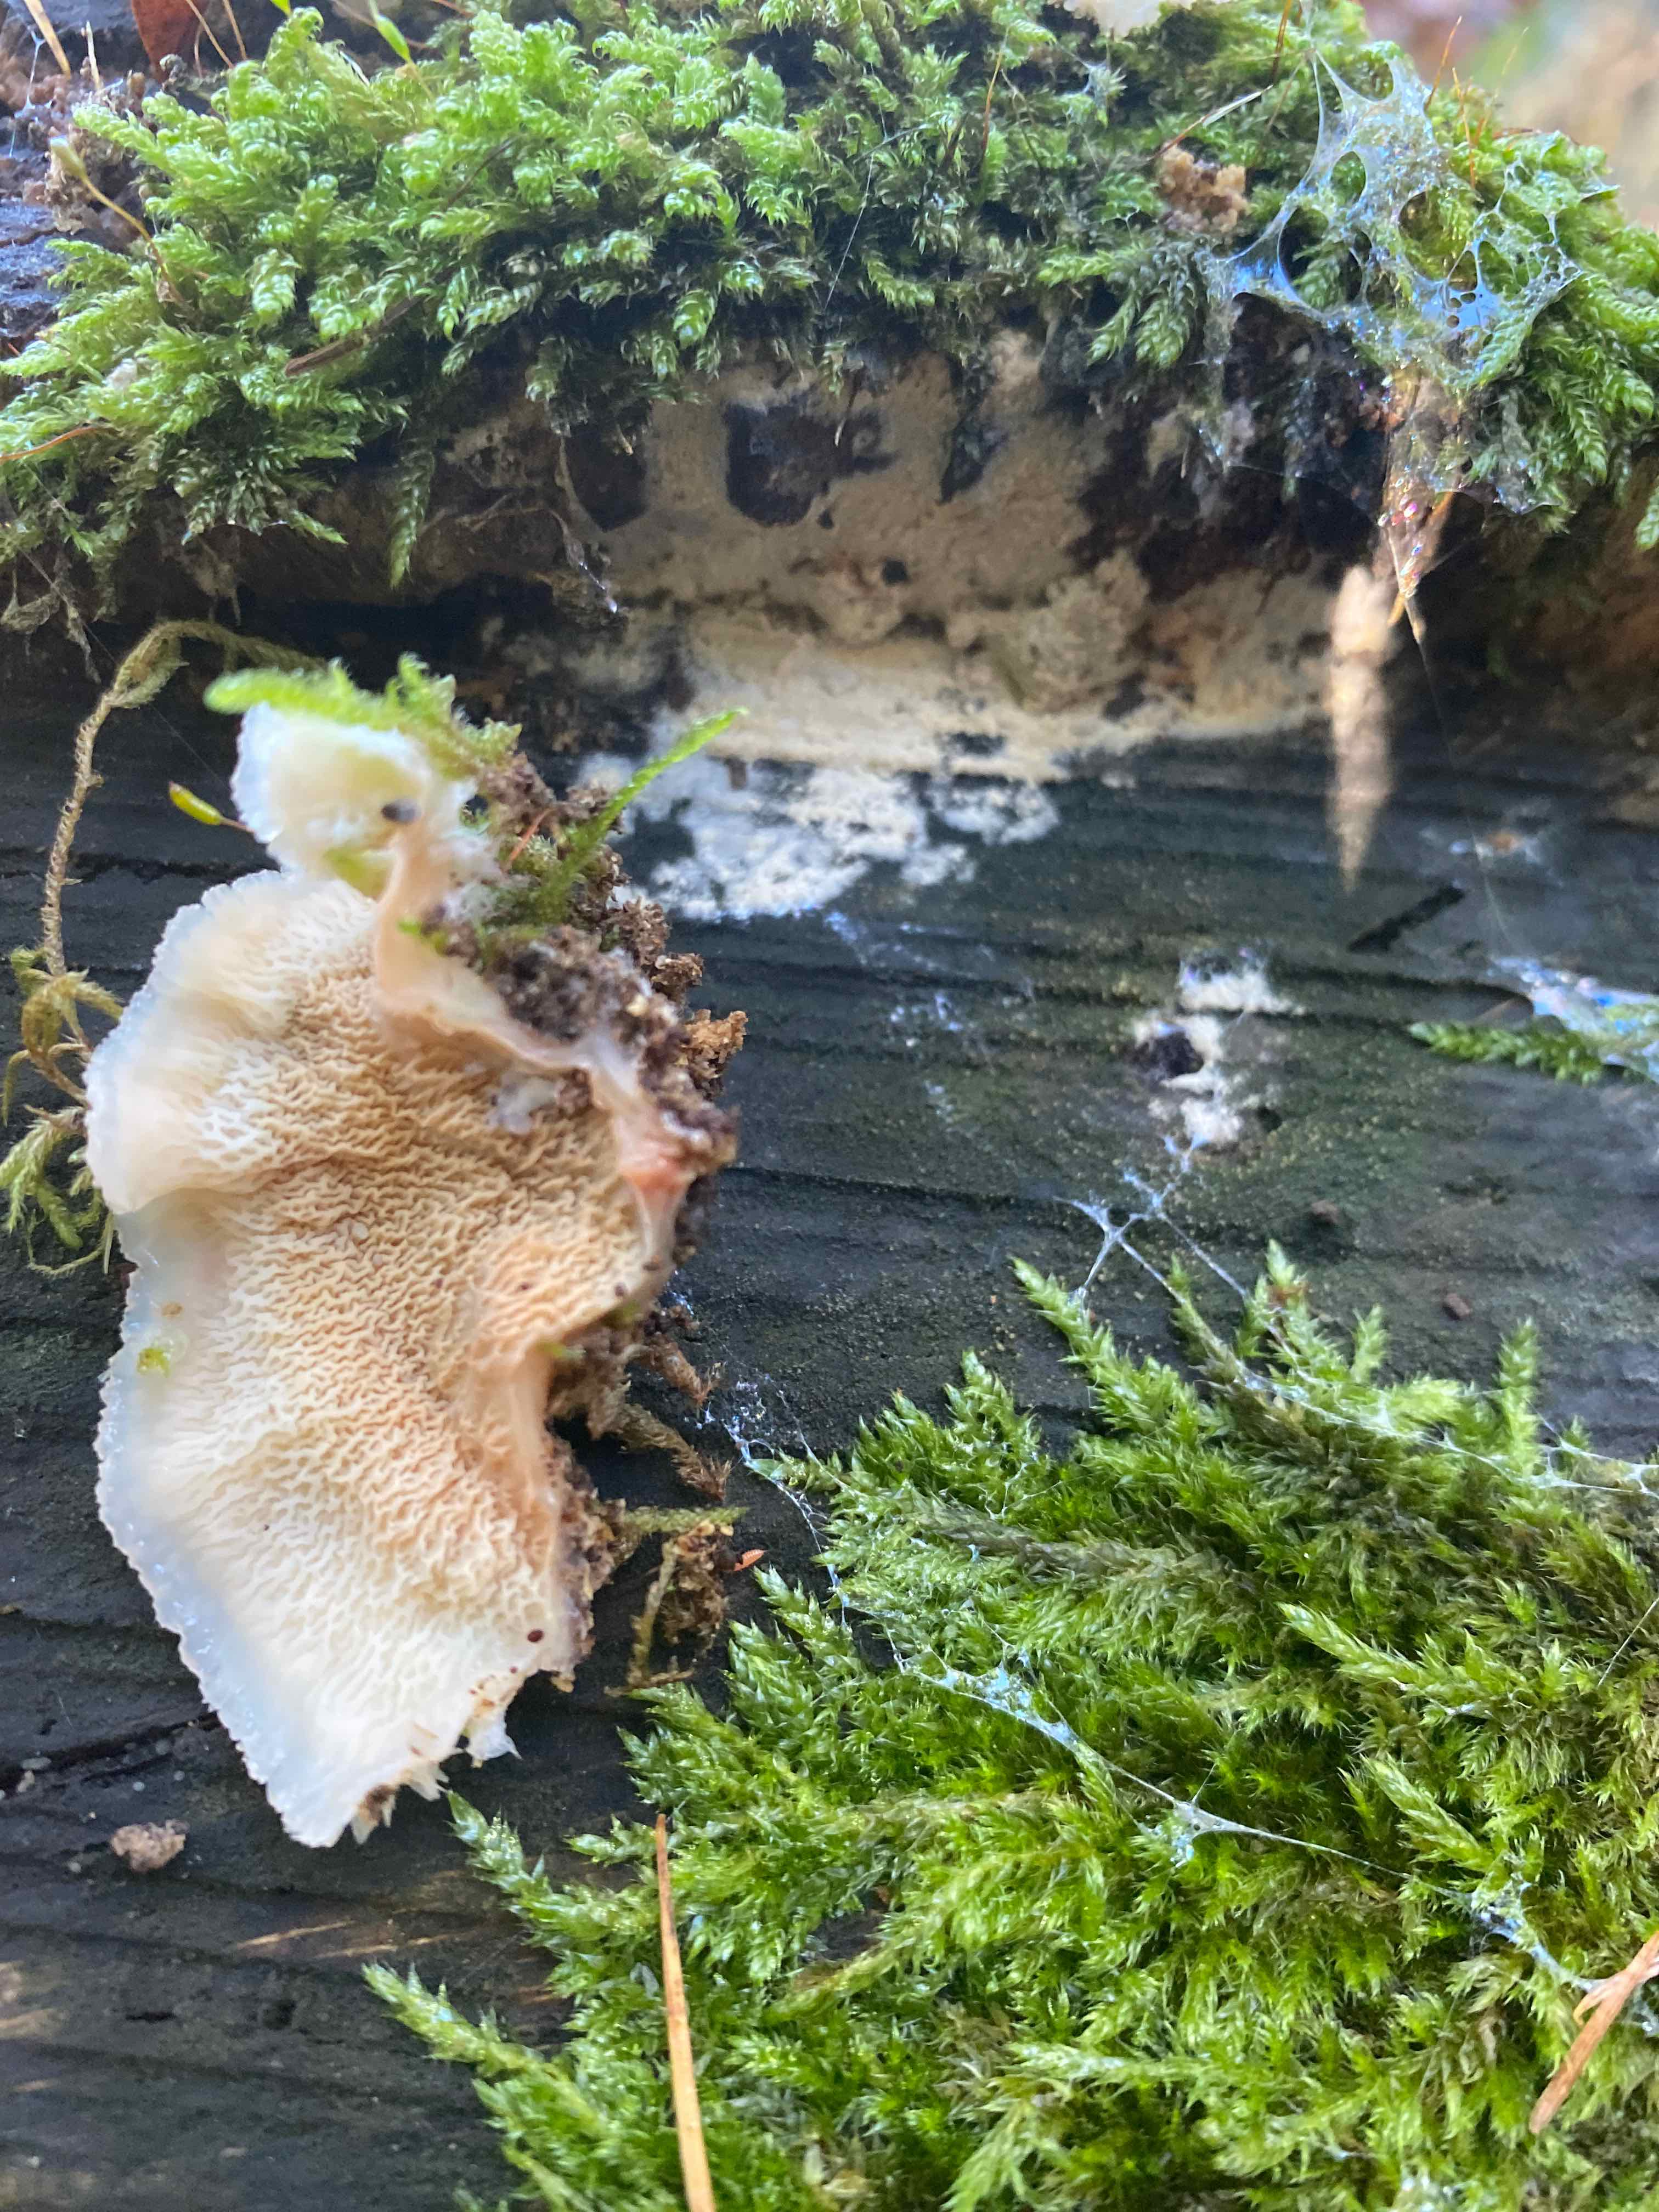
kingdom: Fungi
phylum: Basidiomycota
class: Agaricomycetes
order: Polyporales
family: Meruliaceae
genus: Phlebia
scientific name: Phlebia tremellosa
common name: bævrende åresvamp
